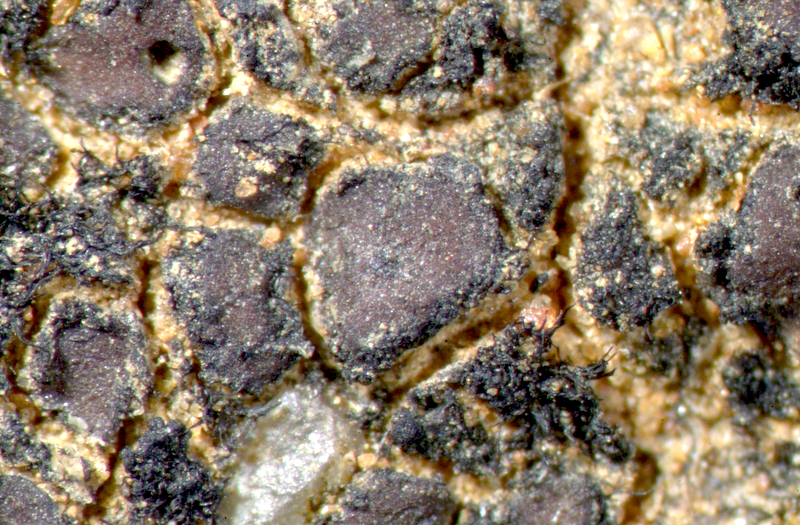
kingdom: Fungi
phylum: Ascomycota
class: Eurotiomycetes
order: Verrucariales
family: Verrucariaceae
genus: Catapyrenium
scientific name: Catapyrenium tenellum
